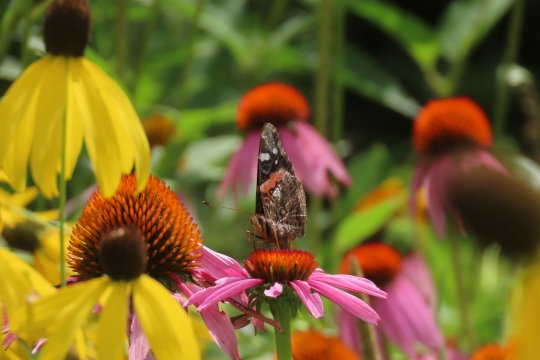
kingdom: Animalia
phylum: Arthropoda
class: Insecta
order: Lepidoptera
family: Nymphalidae
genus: Vanessa
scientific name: Vanessa atalanta
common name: Red Admiral
